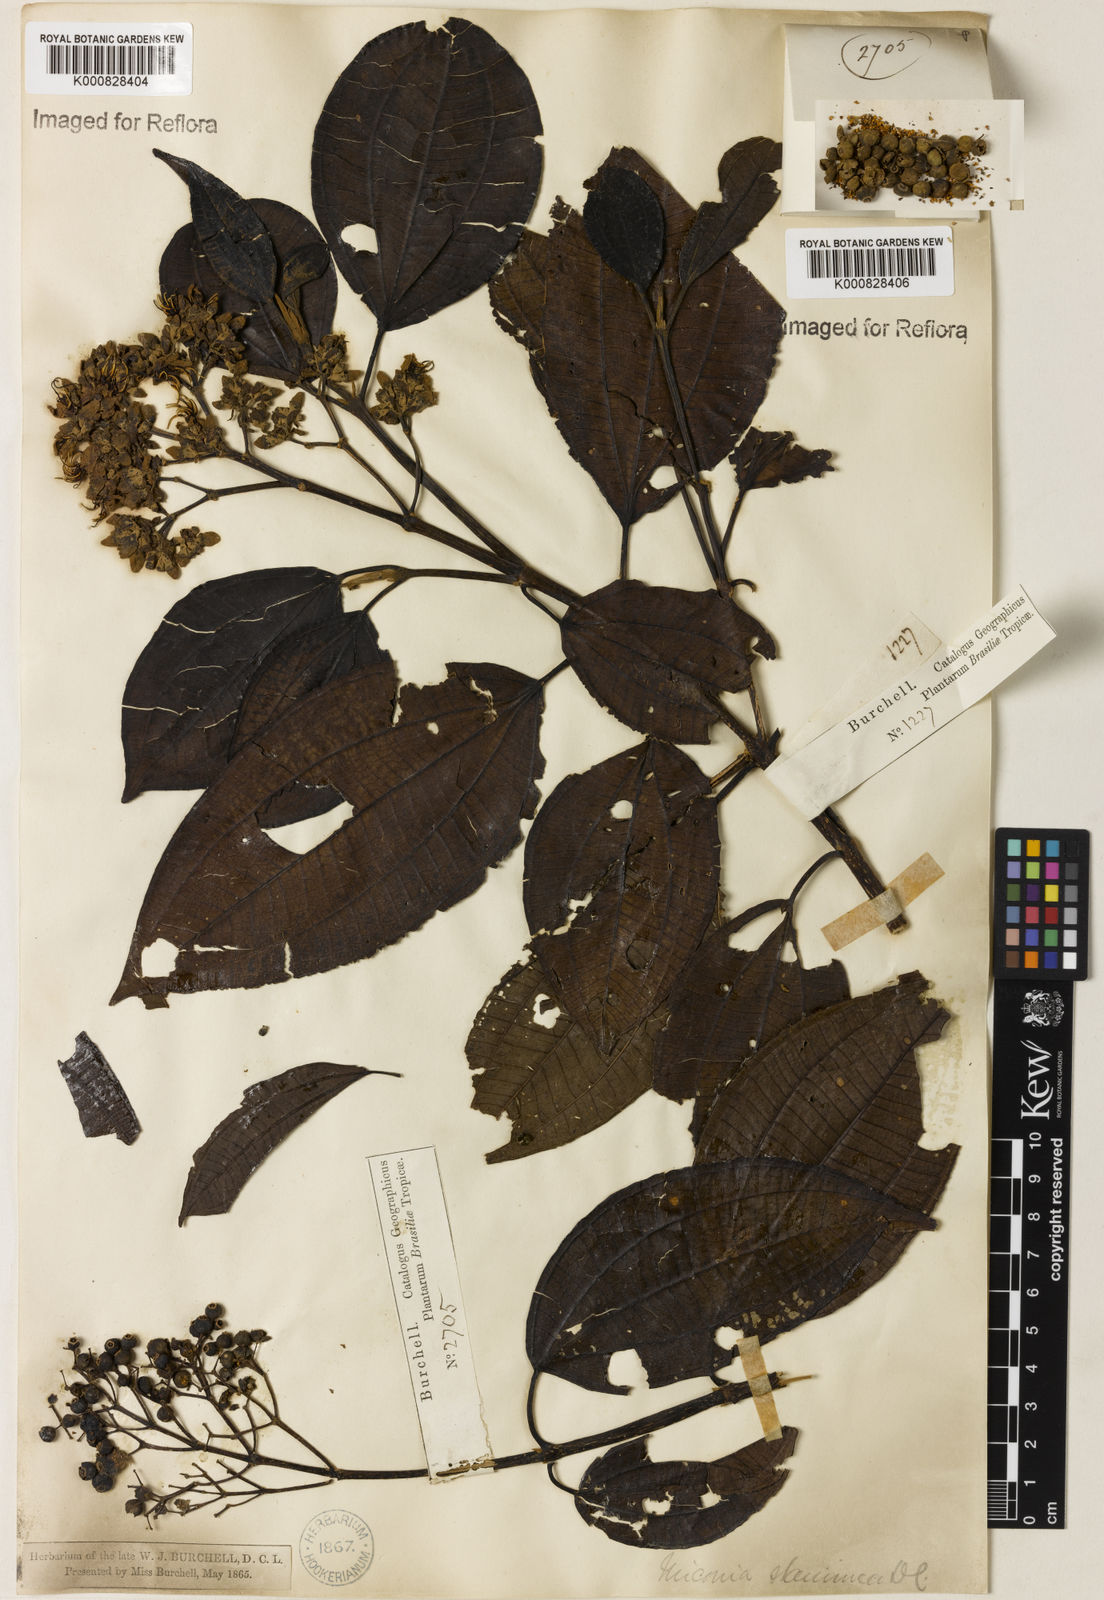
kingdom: Plantae
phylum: Tracheophyta
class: Magnoliopsida
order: Myrtales
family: Melastomataceae
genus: Miconia
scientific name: Miconia staminea
